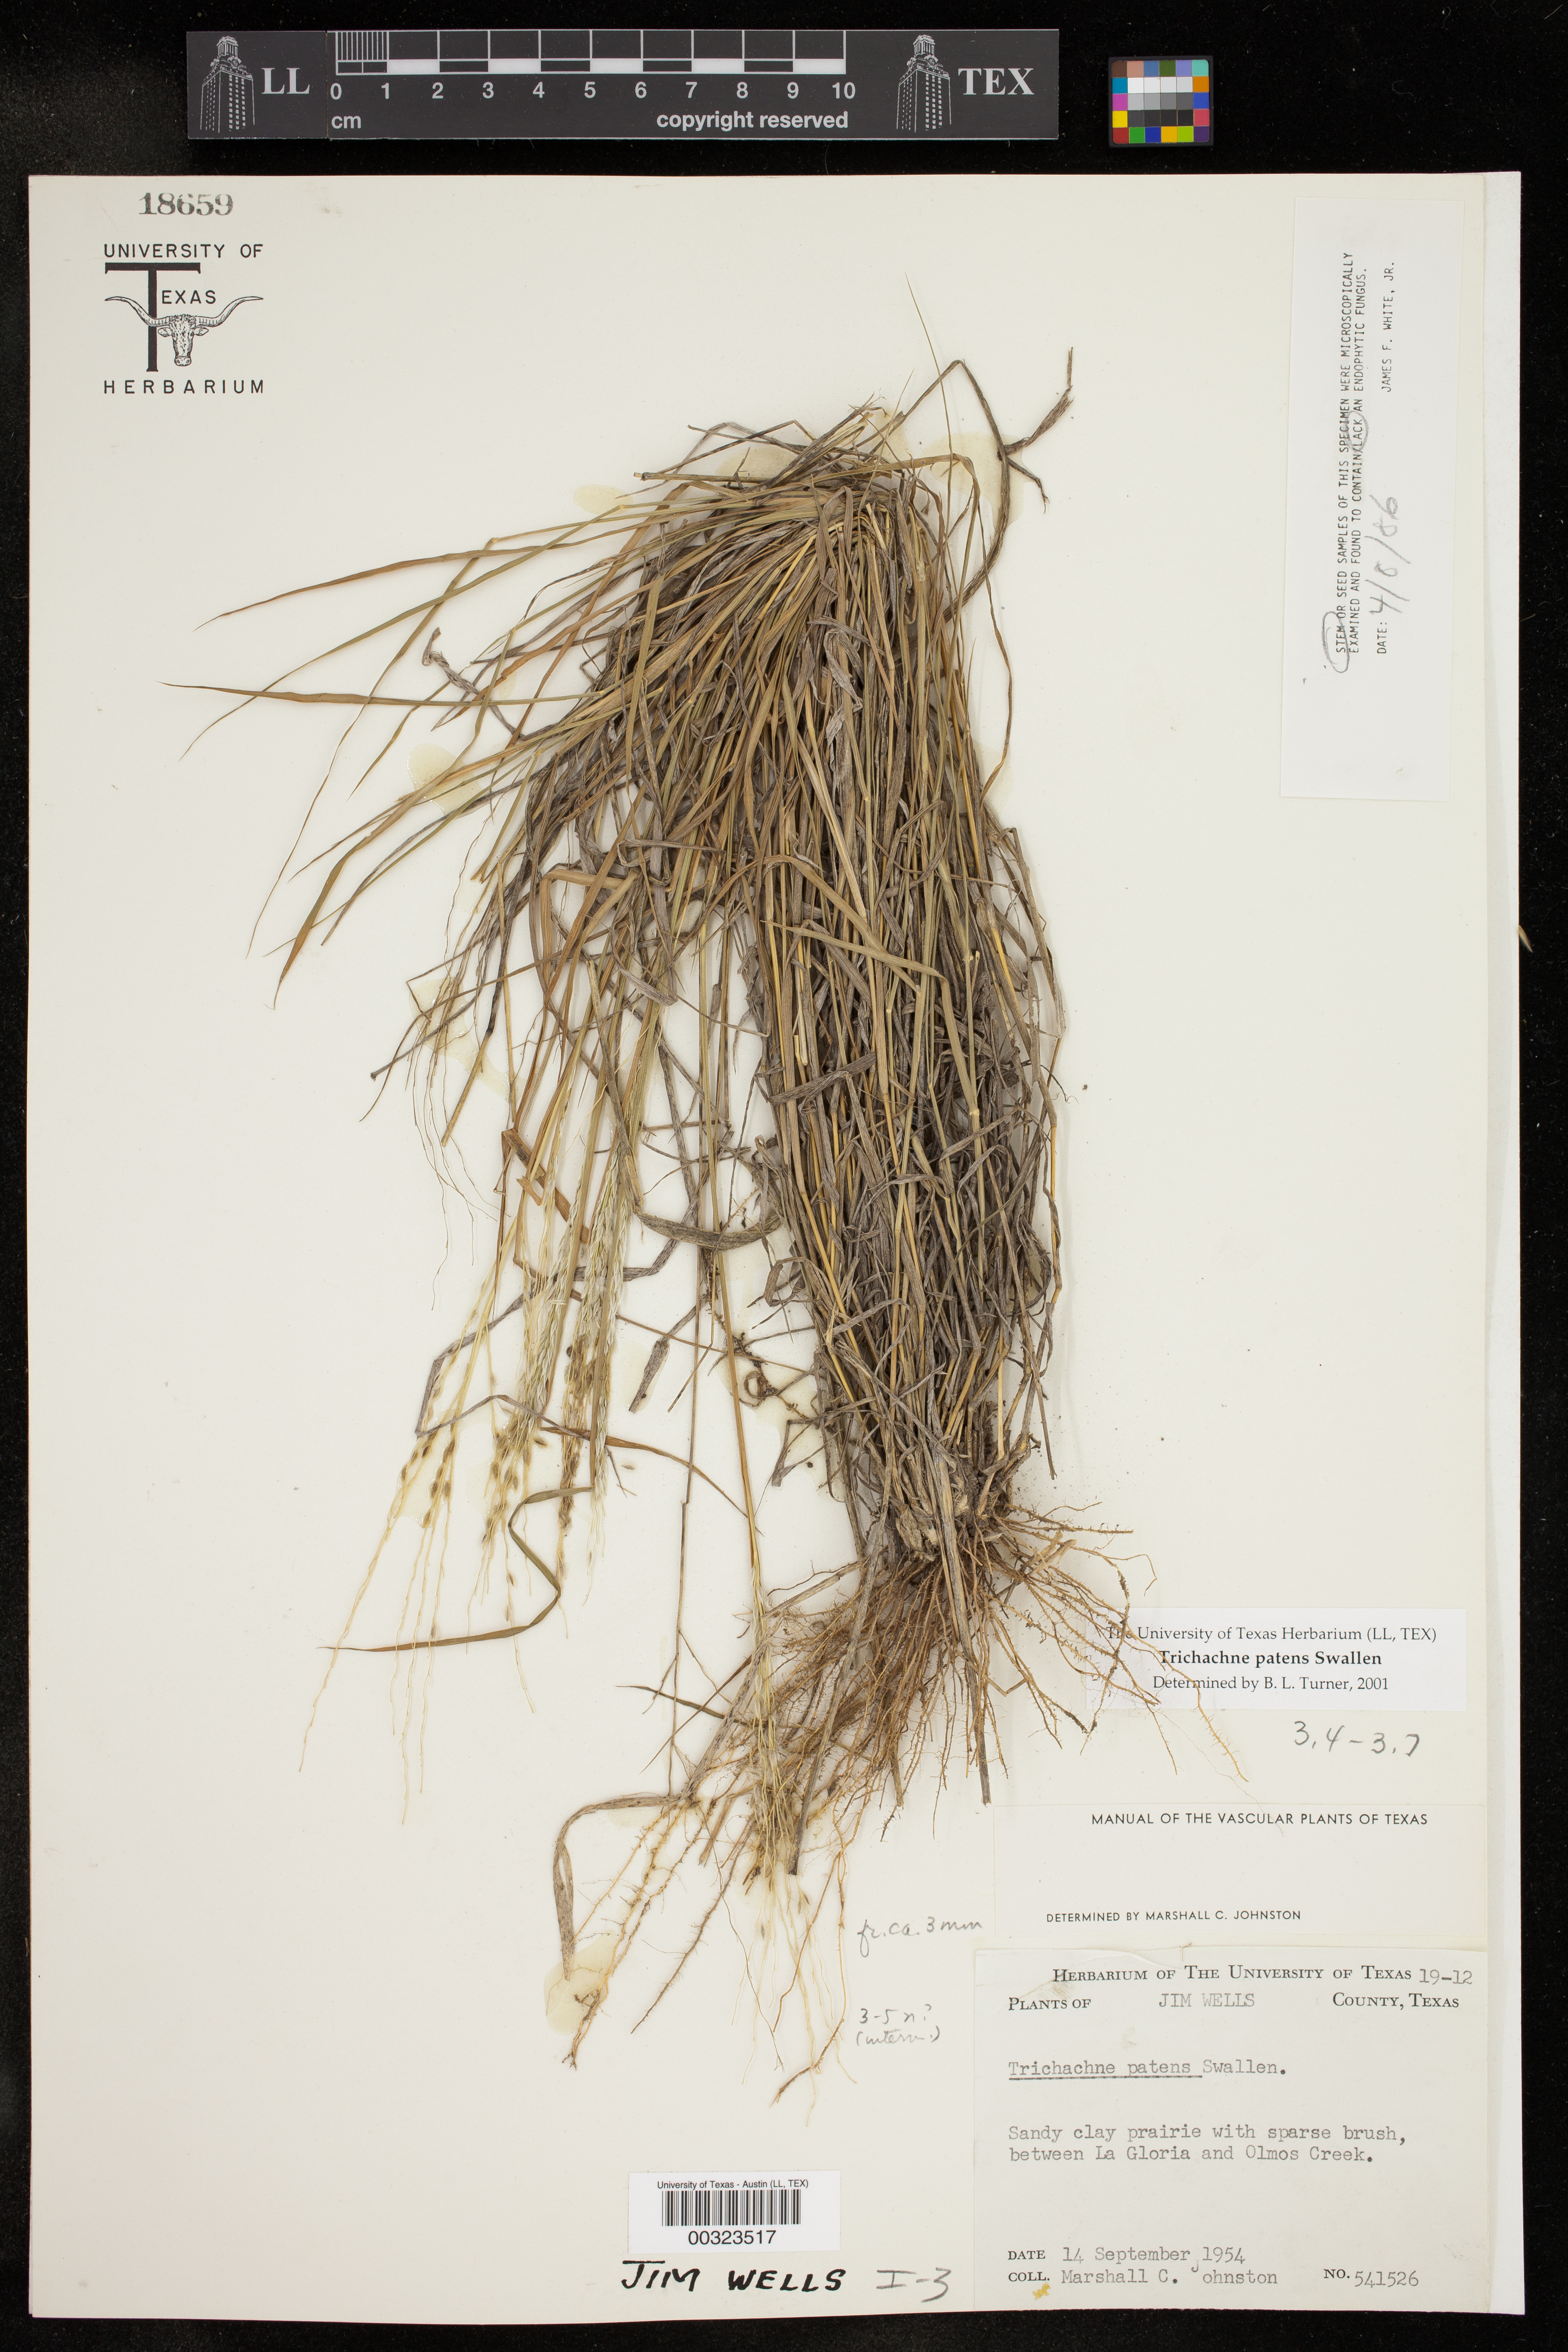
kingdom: Plantae
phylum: Tracheophyta
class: Liliopsida
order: Poales
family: Poaceae
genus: Digitaria
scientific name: Digitaria patens
